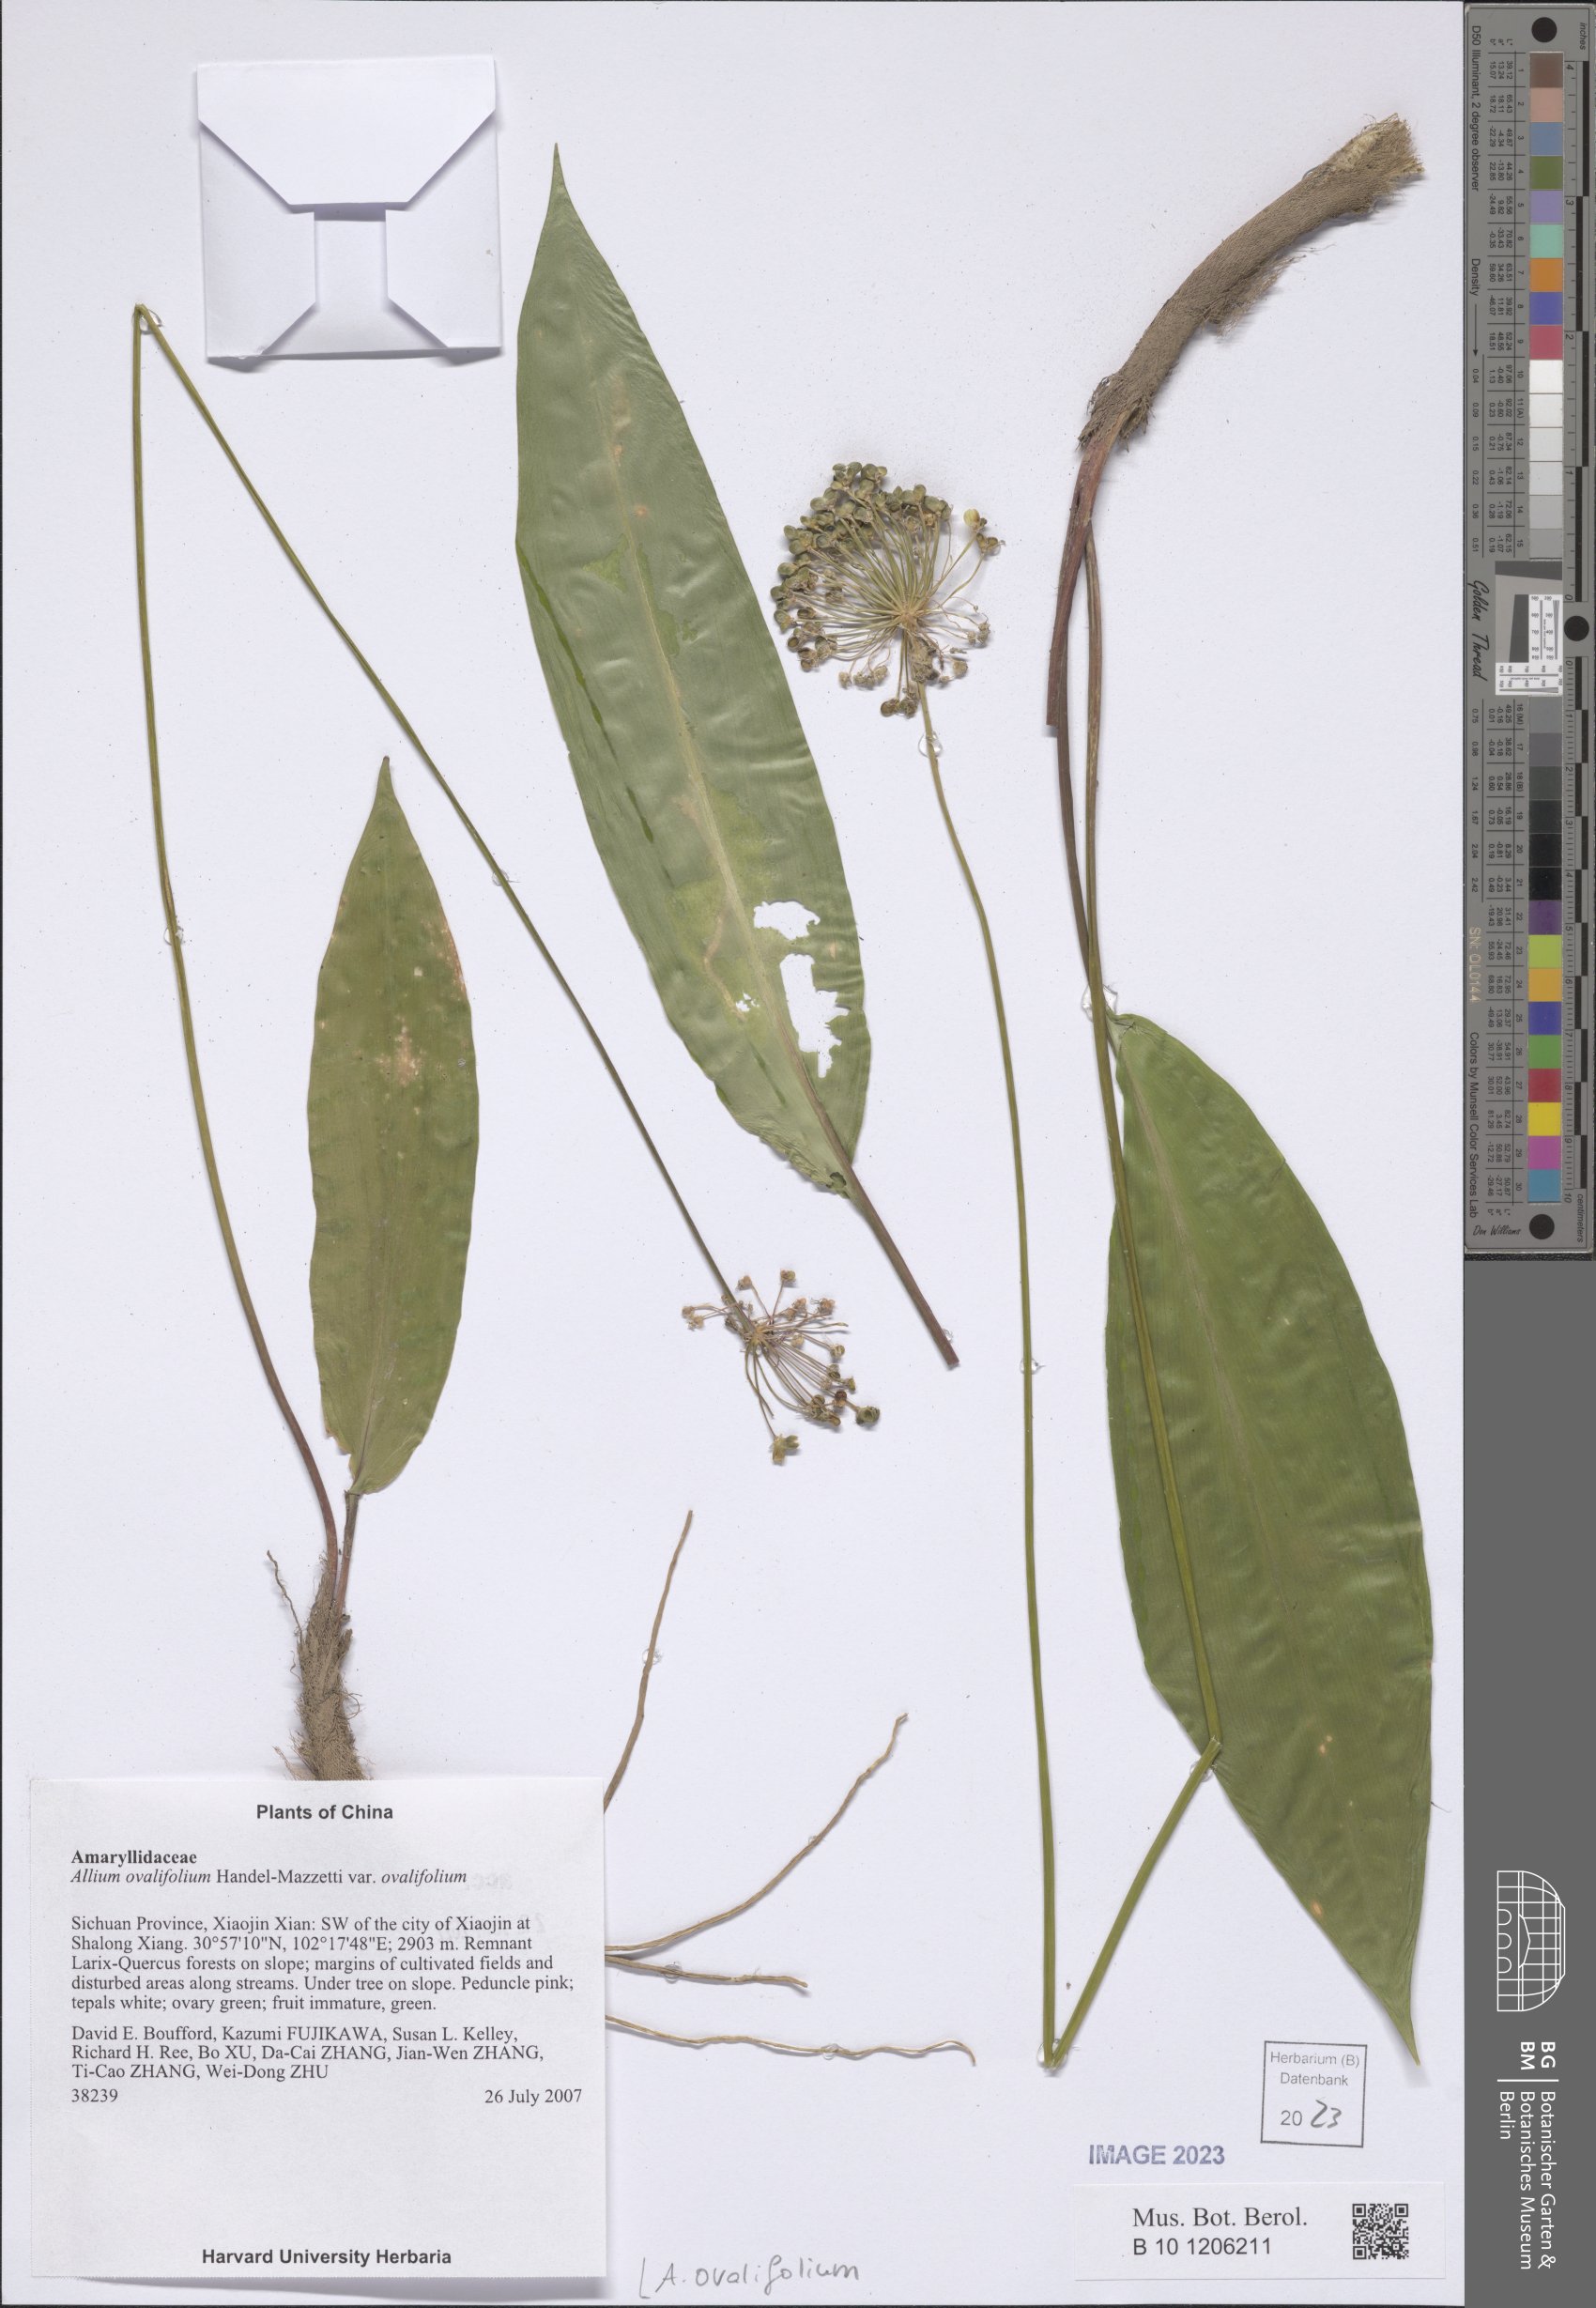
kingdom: Plantae
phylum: Tracheophyta
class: Liliopsida
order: Asparagales
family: Amaryllidaceae
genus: Allium
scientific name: Allium ovalifolium
